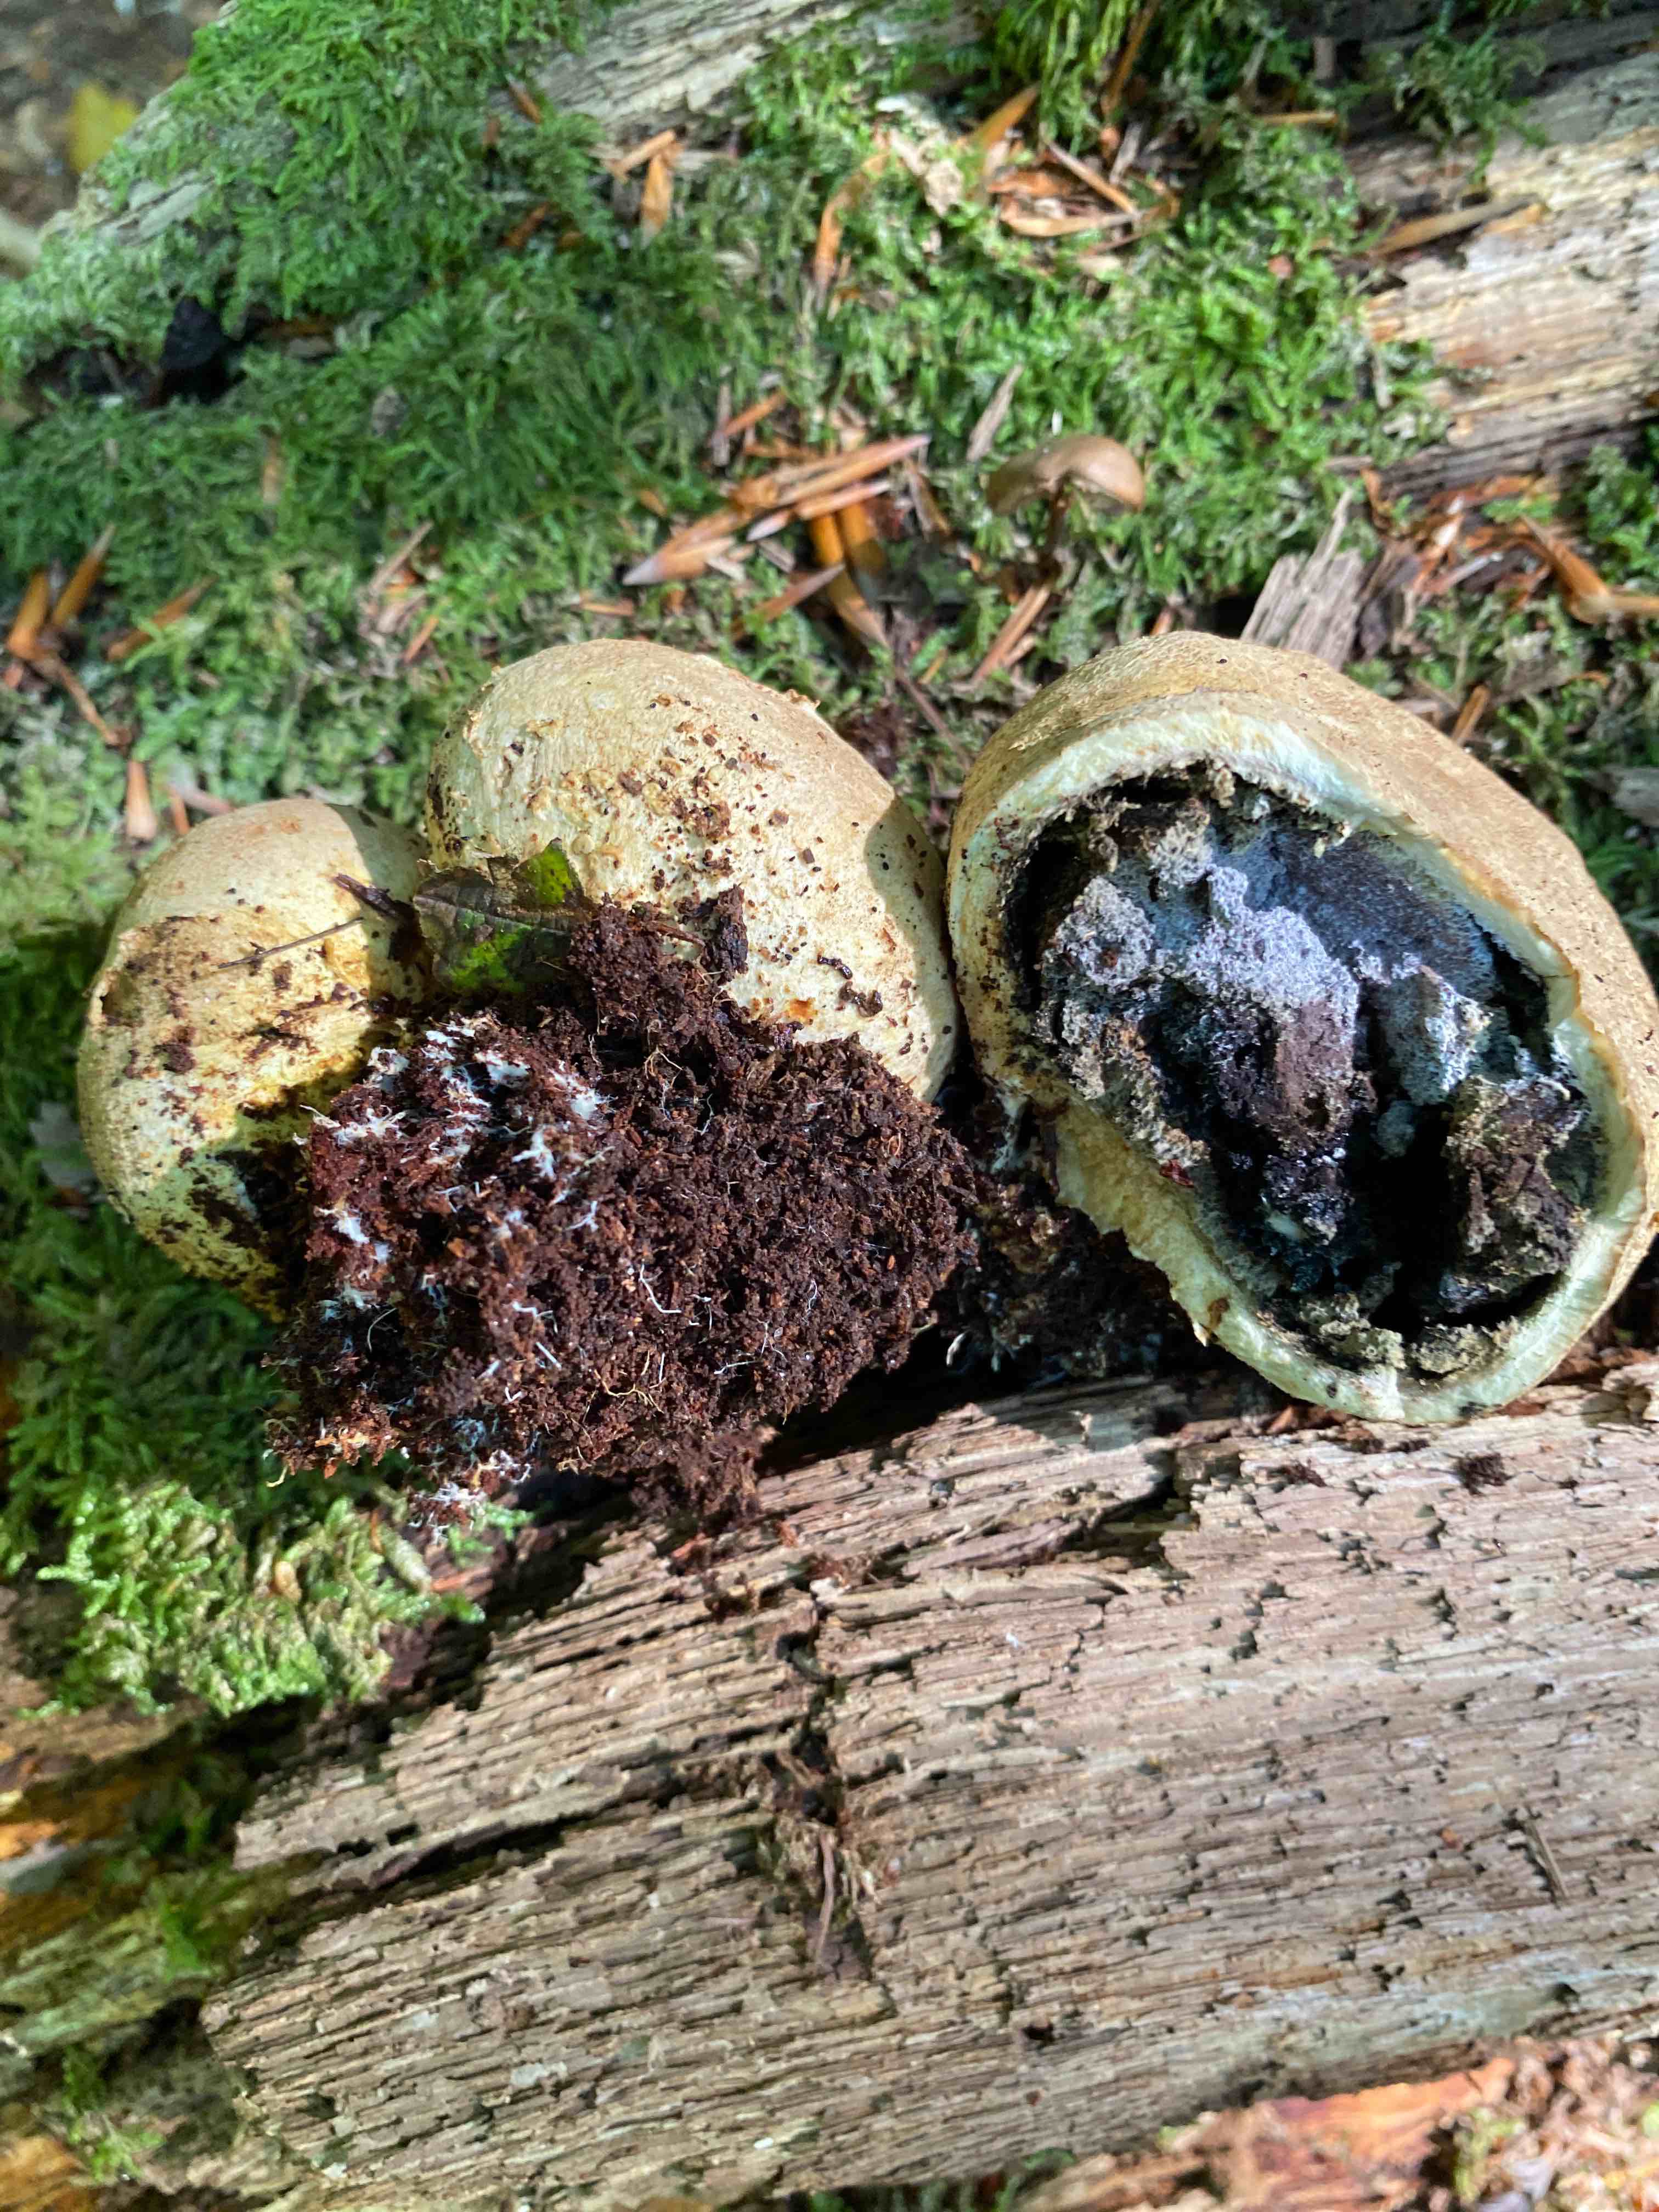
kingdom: Fungi
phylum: Basidiomycota
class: Agaricomycetes
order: Boletales
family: Sclerodermataceae
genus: Scleroderma
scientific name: Scleroderma citrinum
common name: almindelig bruskbold
